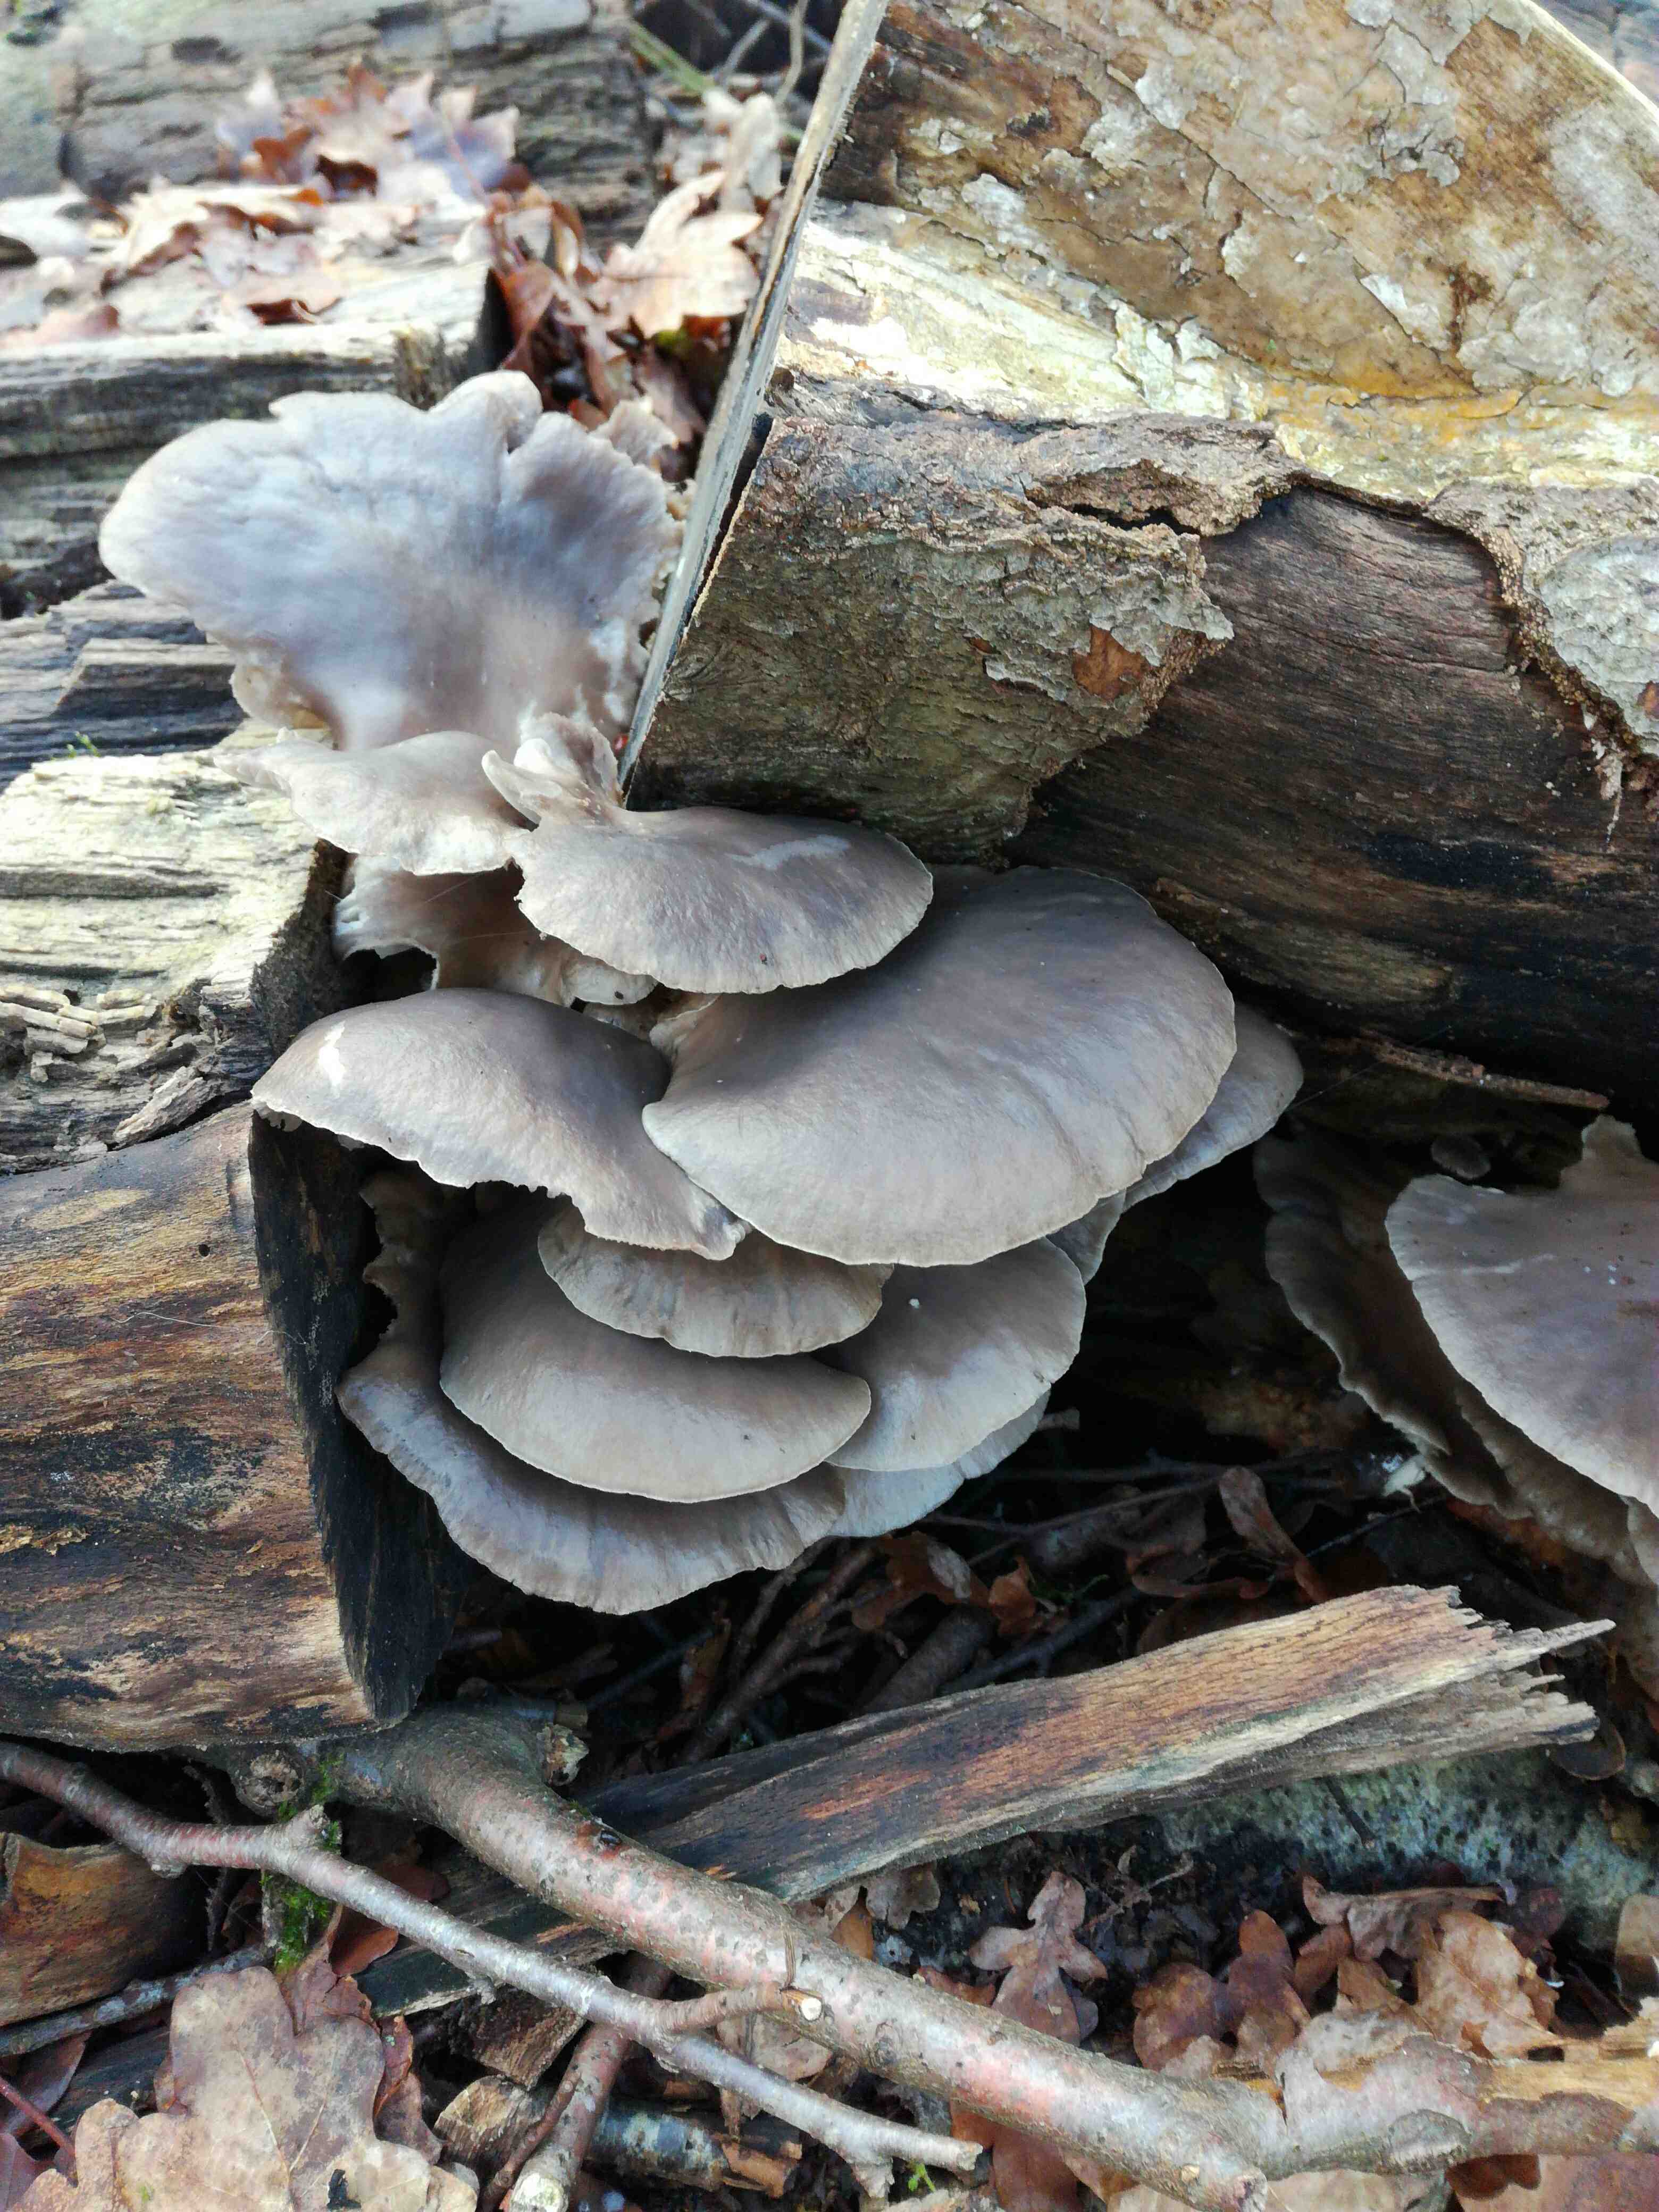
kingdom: Fungi
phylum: Basidiomycota
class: Agaricomycetes
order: Agaricales
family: Pleurotaceae
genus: Pleurotus
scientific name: Pleurotus ostreatus
